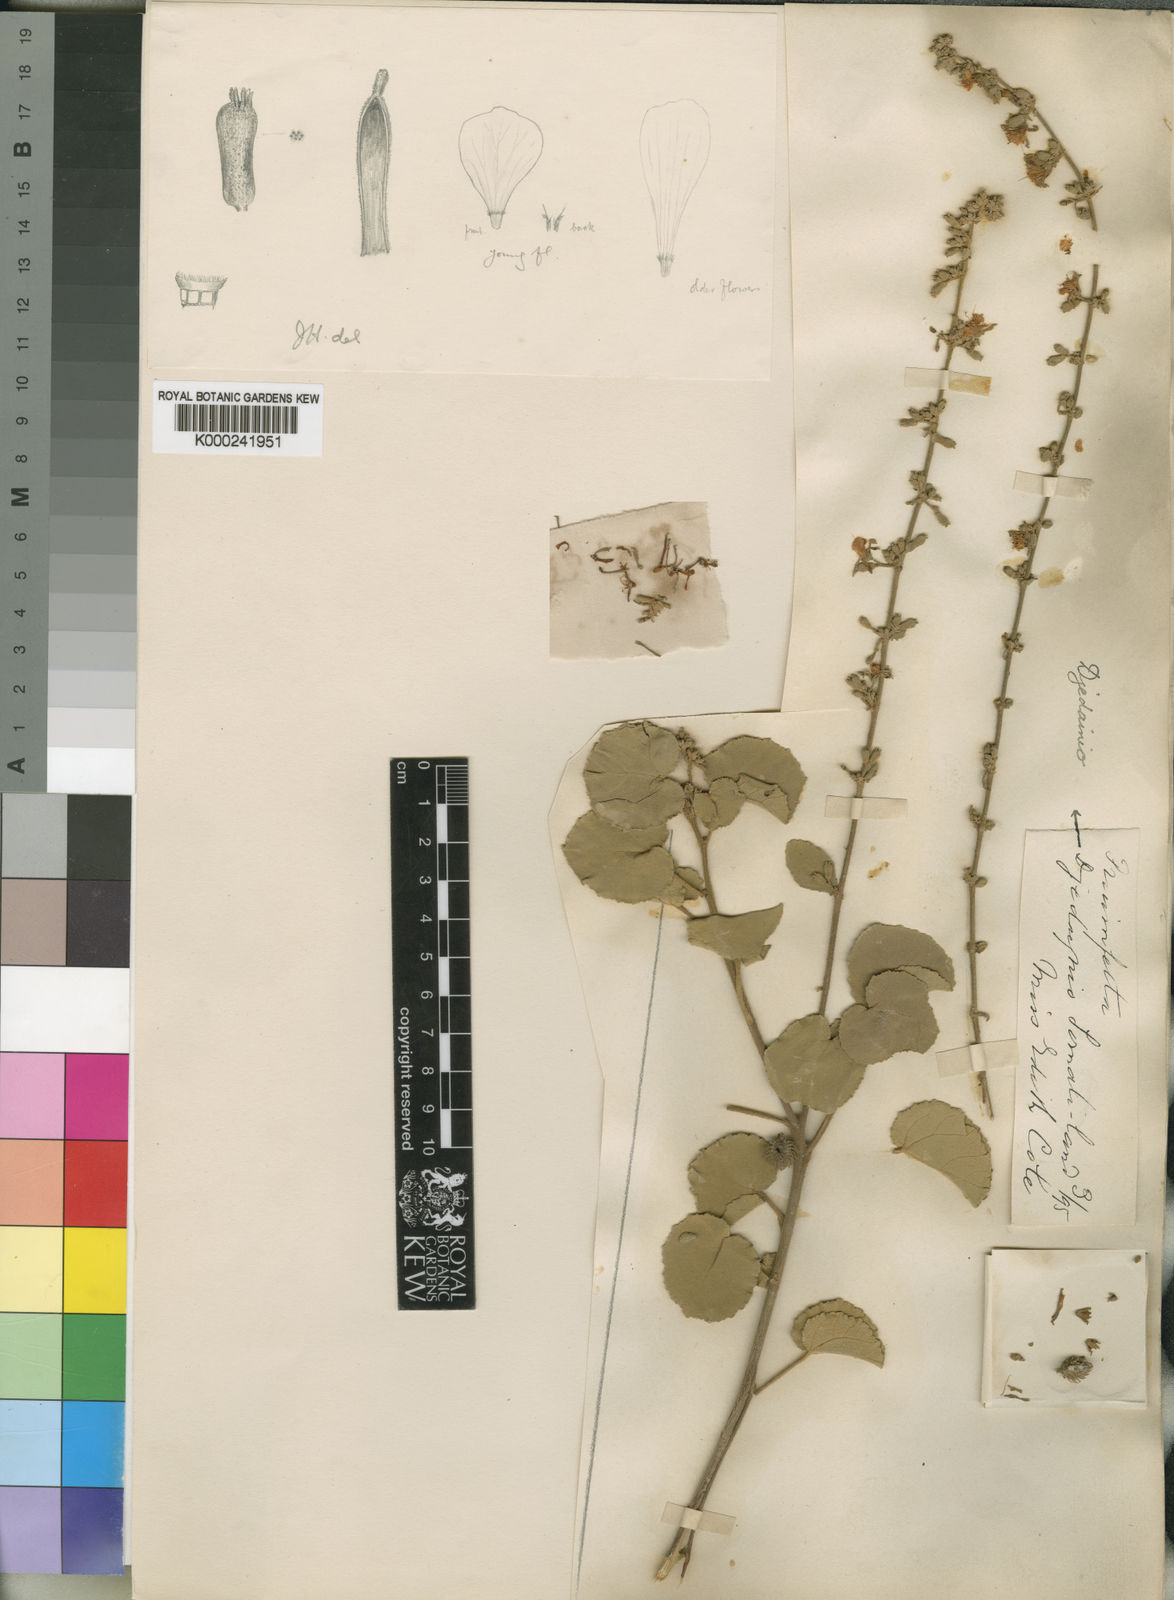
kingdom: Plantae
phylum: Tracheophyta
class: Magnoliopsida
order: Malvales
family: Malvaceae
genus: Triumfetta
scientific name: Triumfetta trigona
